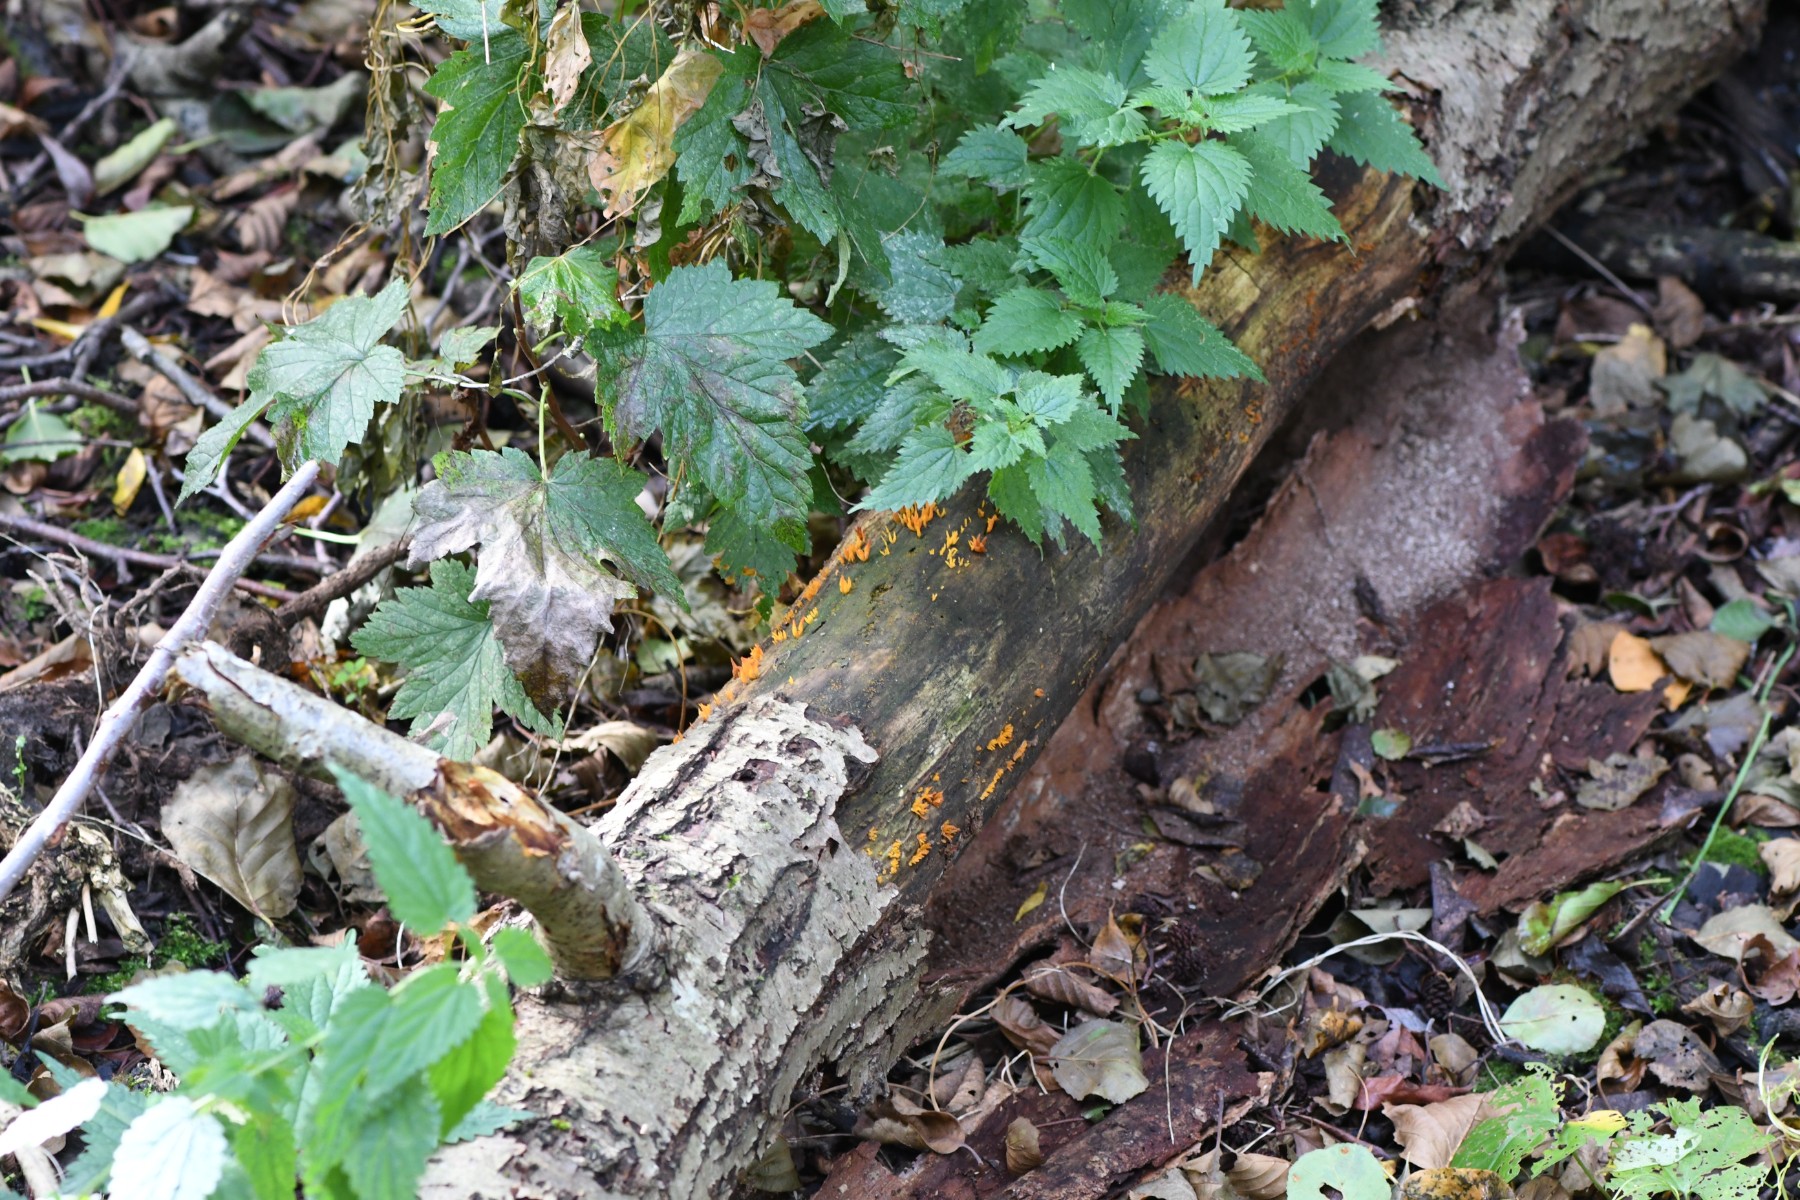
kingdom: Fungi
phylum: Basidiomycota
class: Dacrymycetes
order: Dacrymycetales
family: Dacrymycetaceae
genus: Calocera
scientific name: Calocera cornea
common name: liden guldgaffel
